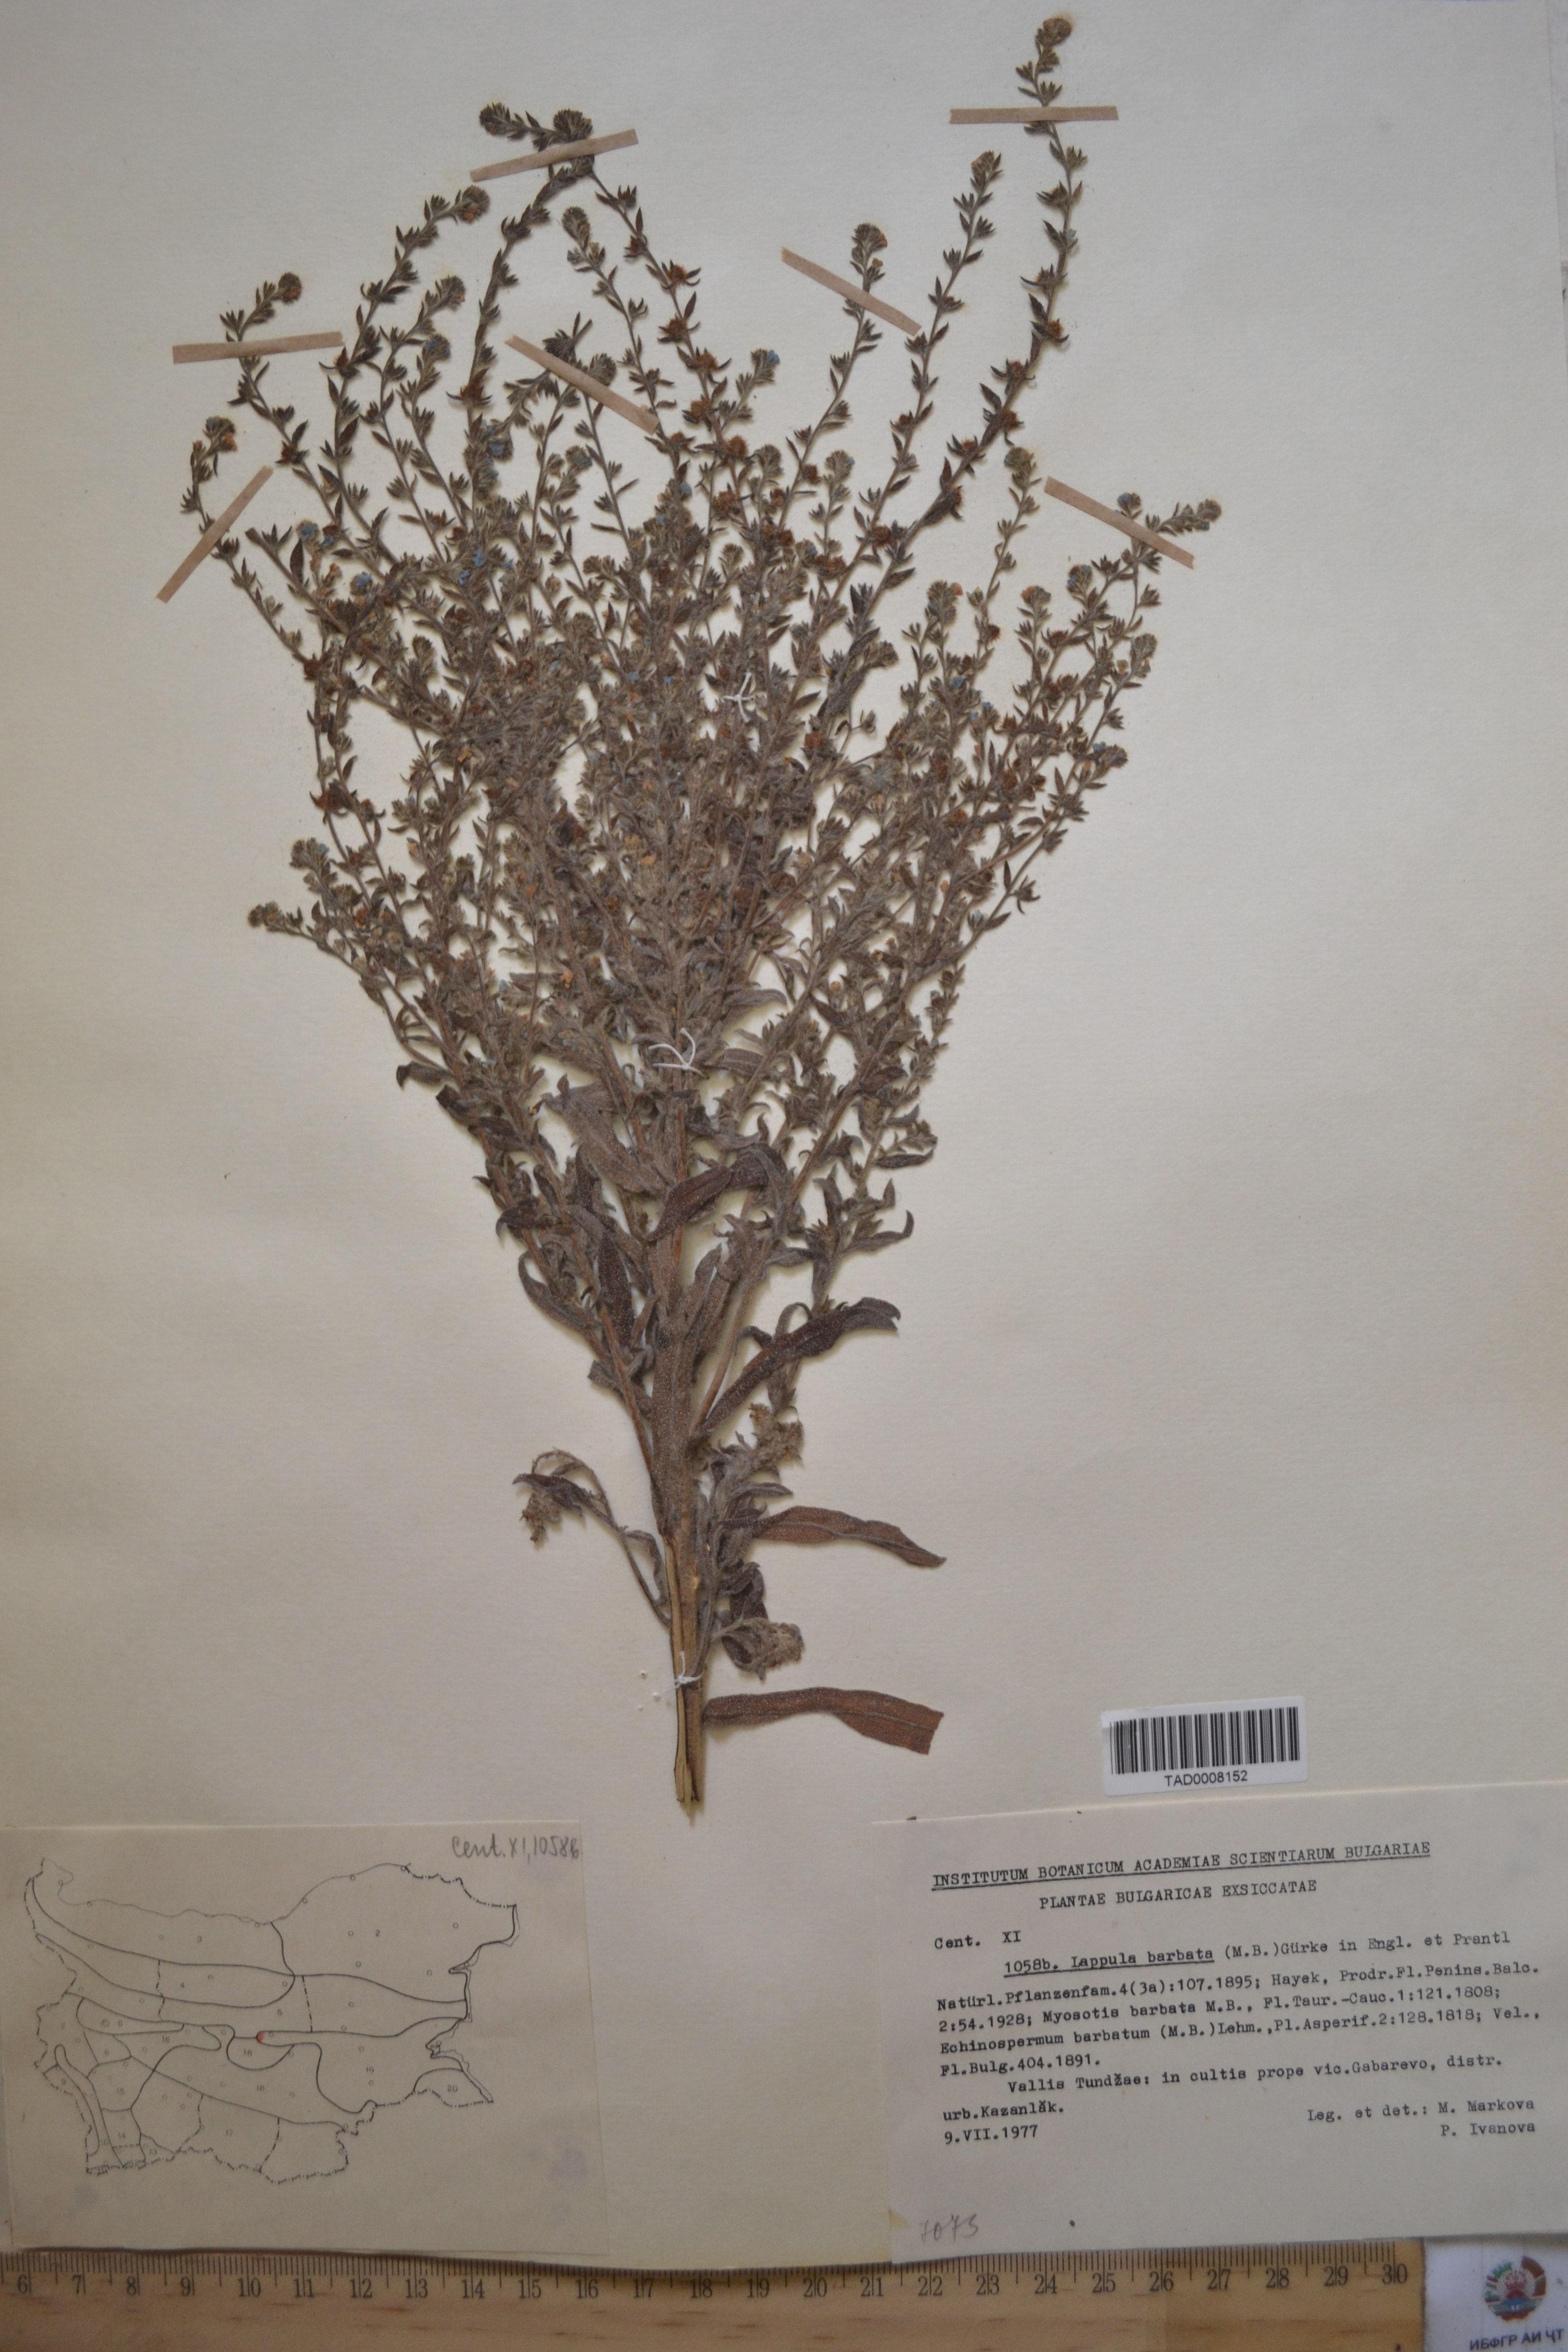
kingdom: Plantae
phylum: Tracheophyta
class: Magnoliopsida
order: Boraginales
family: Boraginaceae
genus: Lappula
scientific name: Lappula barbata
